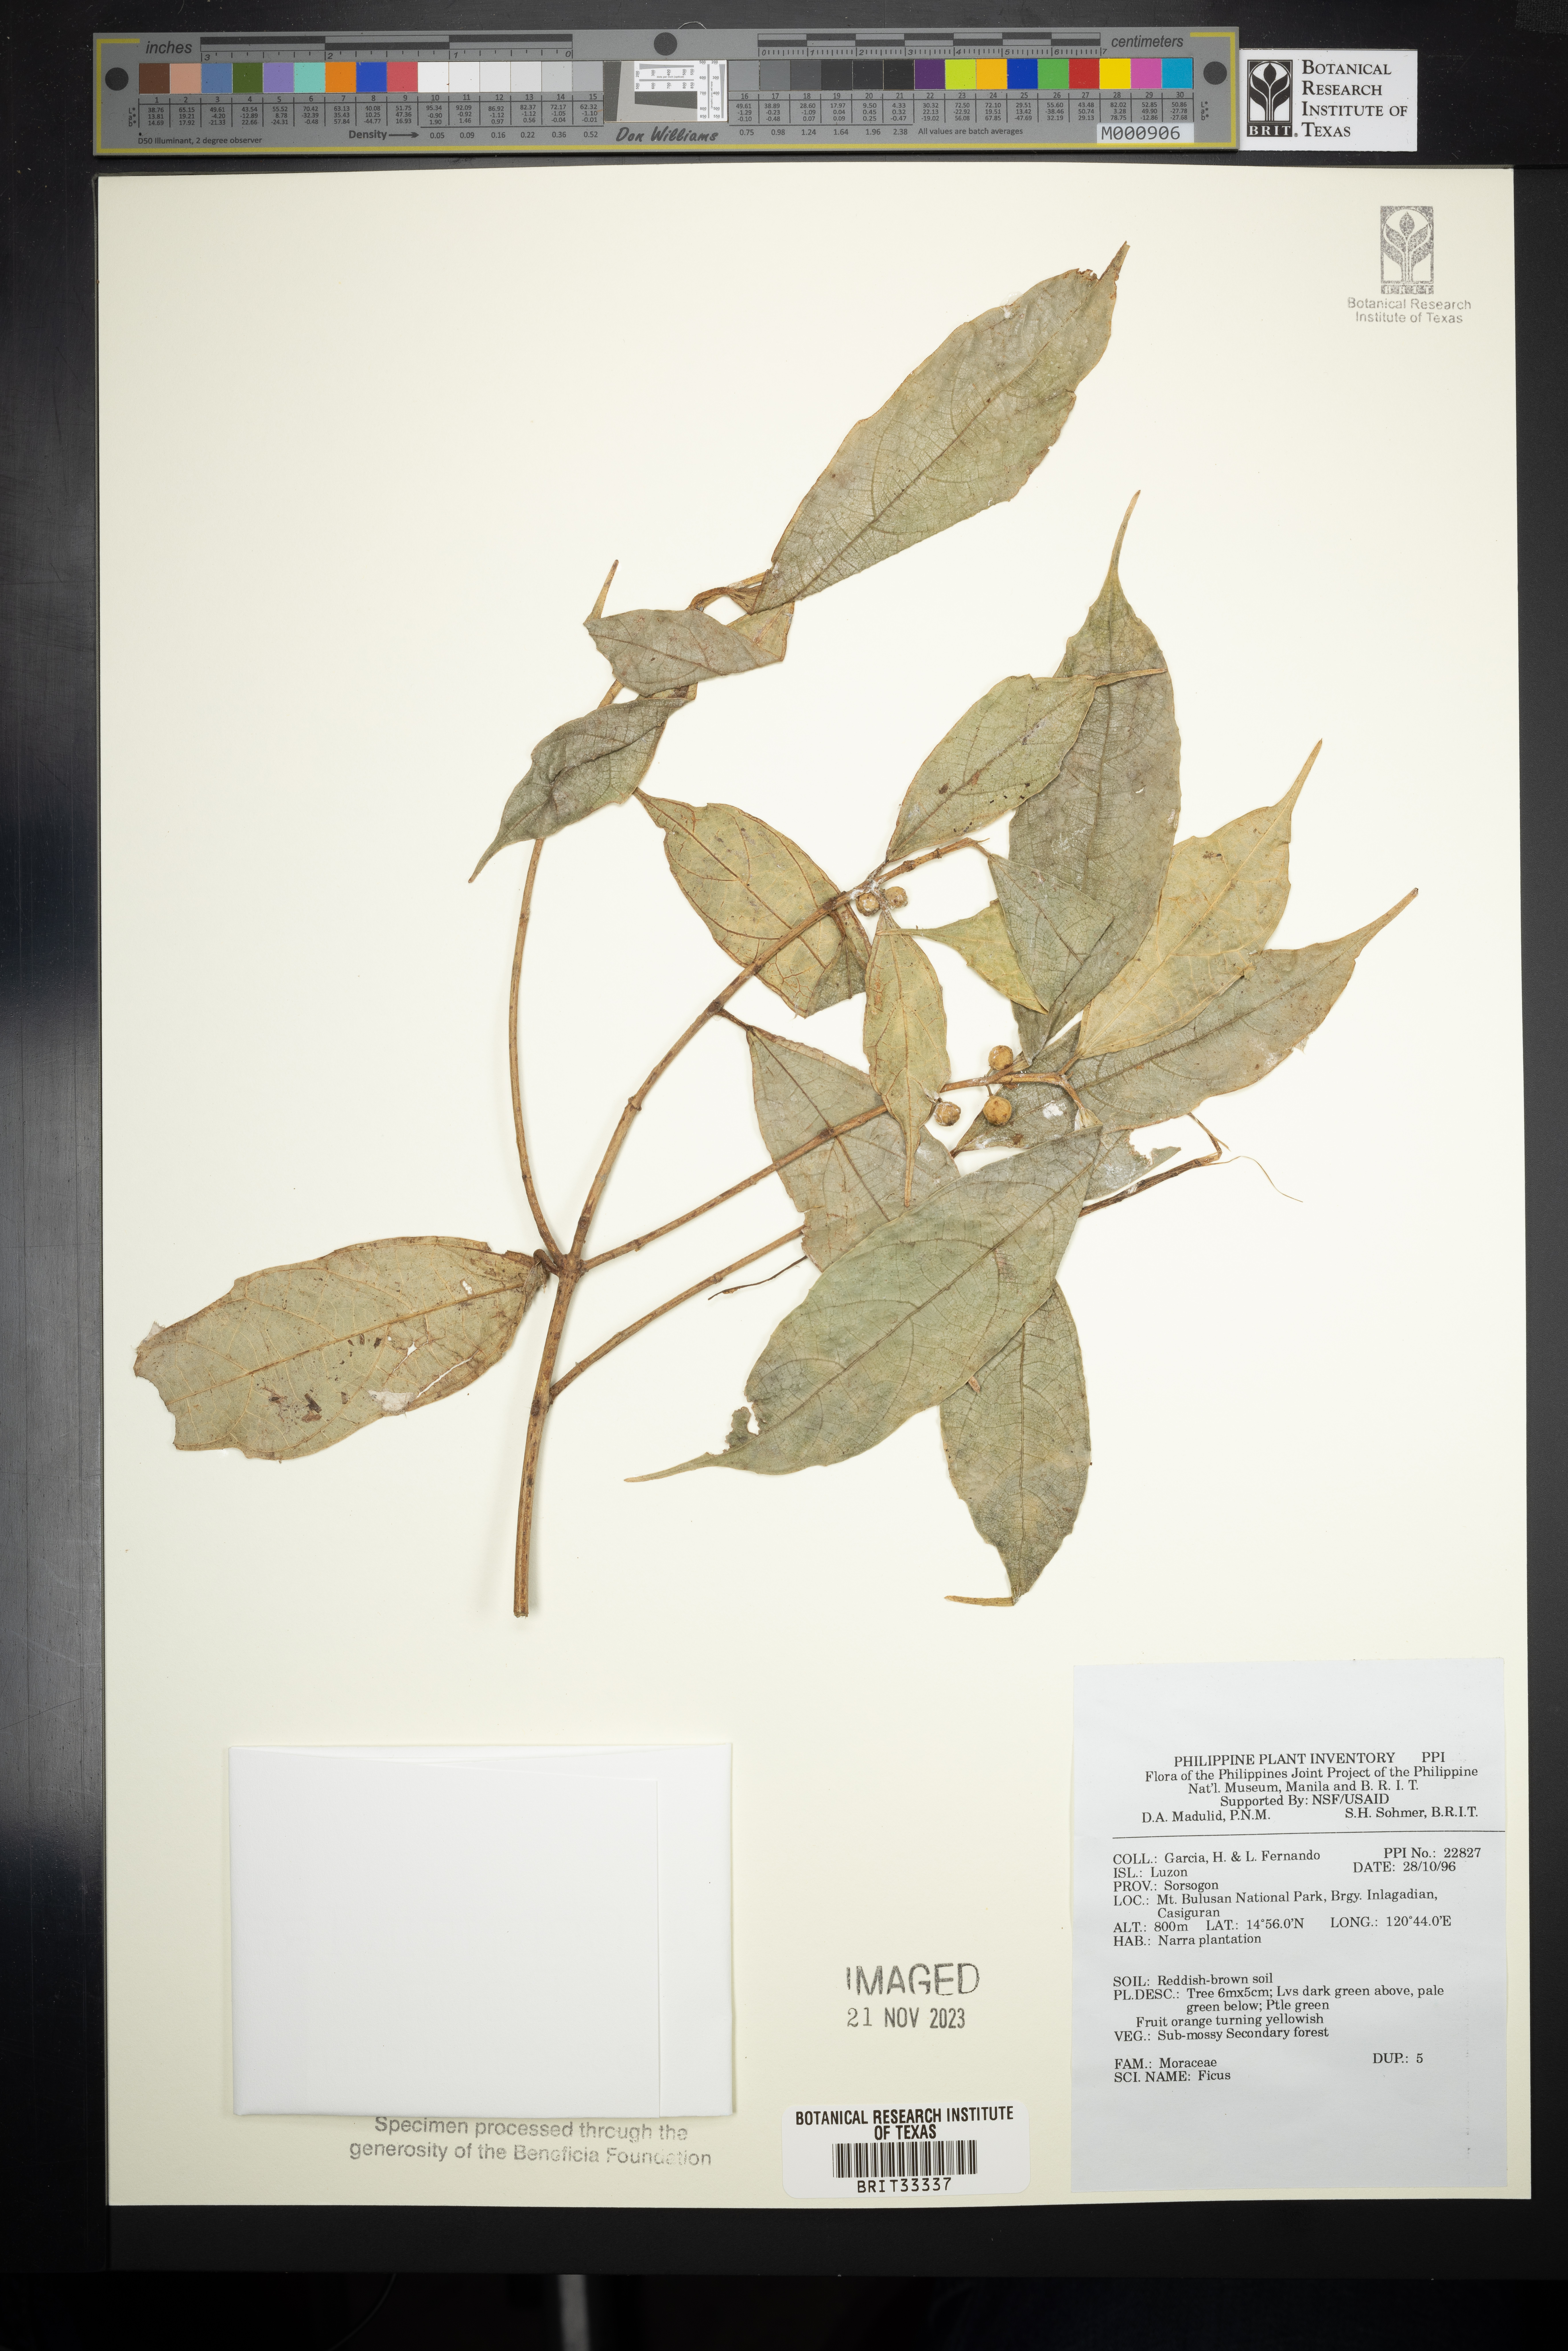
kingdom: Plantae
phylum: Tracheophyta
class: Magnoliopsida
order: Rosales
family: Moraceae
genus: Ficus
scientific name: Ficus
